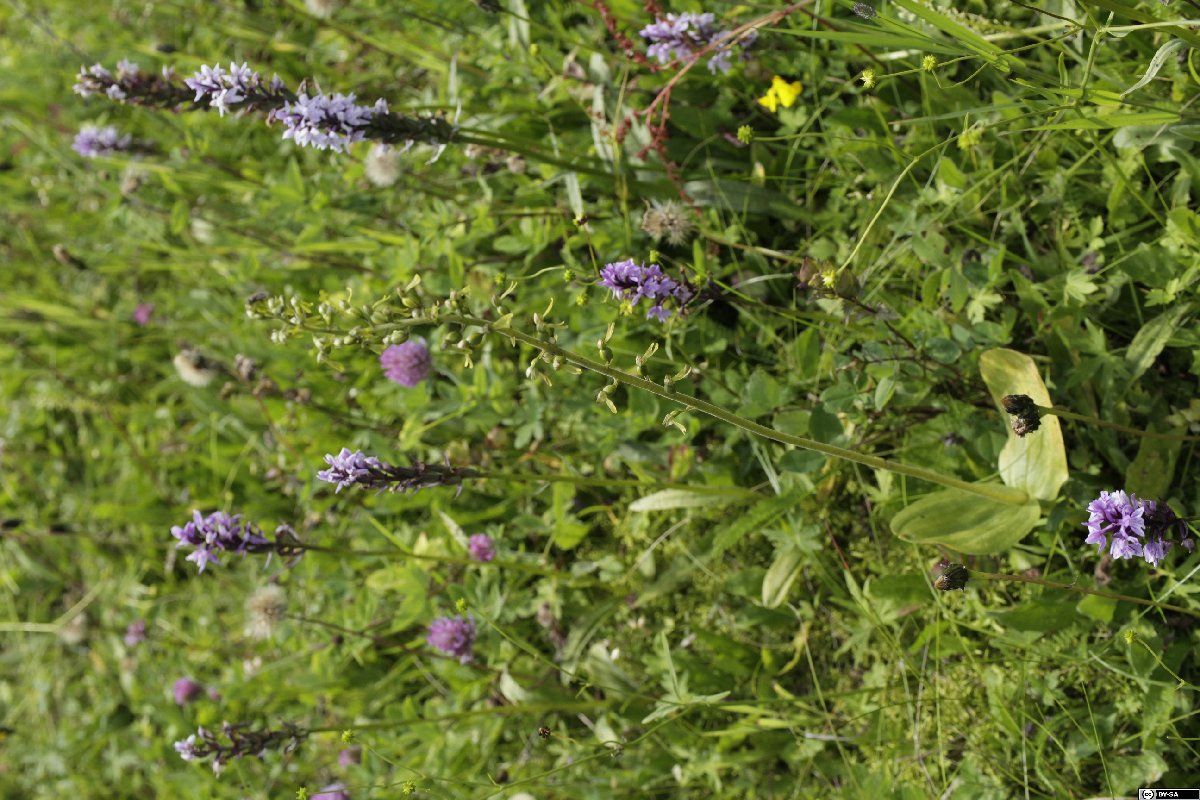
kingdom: Plantae
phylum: Tracheophyta
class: Liliopsida
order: Asparagales
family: Orchidaceae
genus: Neottia
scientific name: Neottia ovata
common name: Common twayblade
